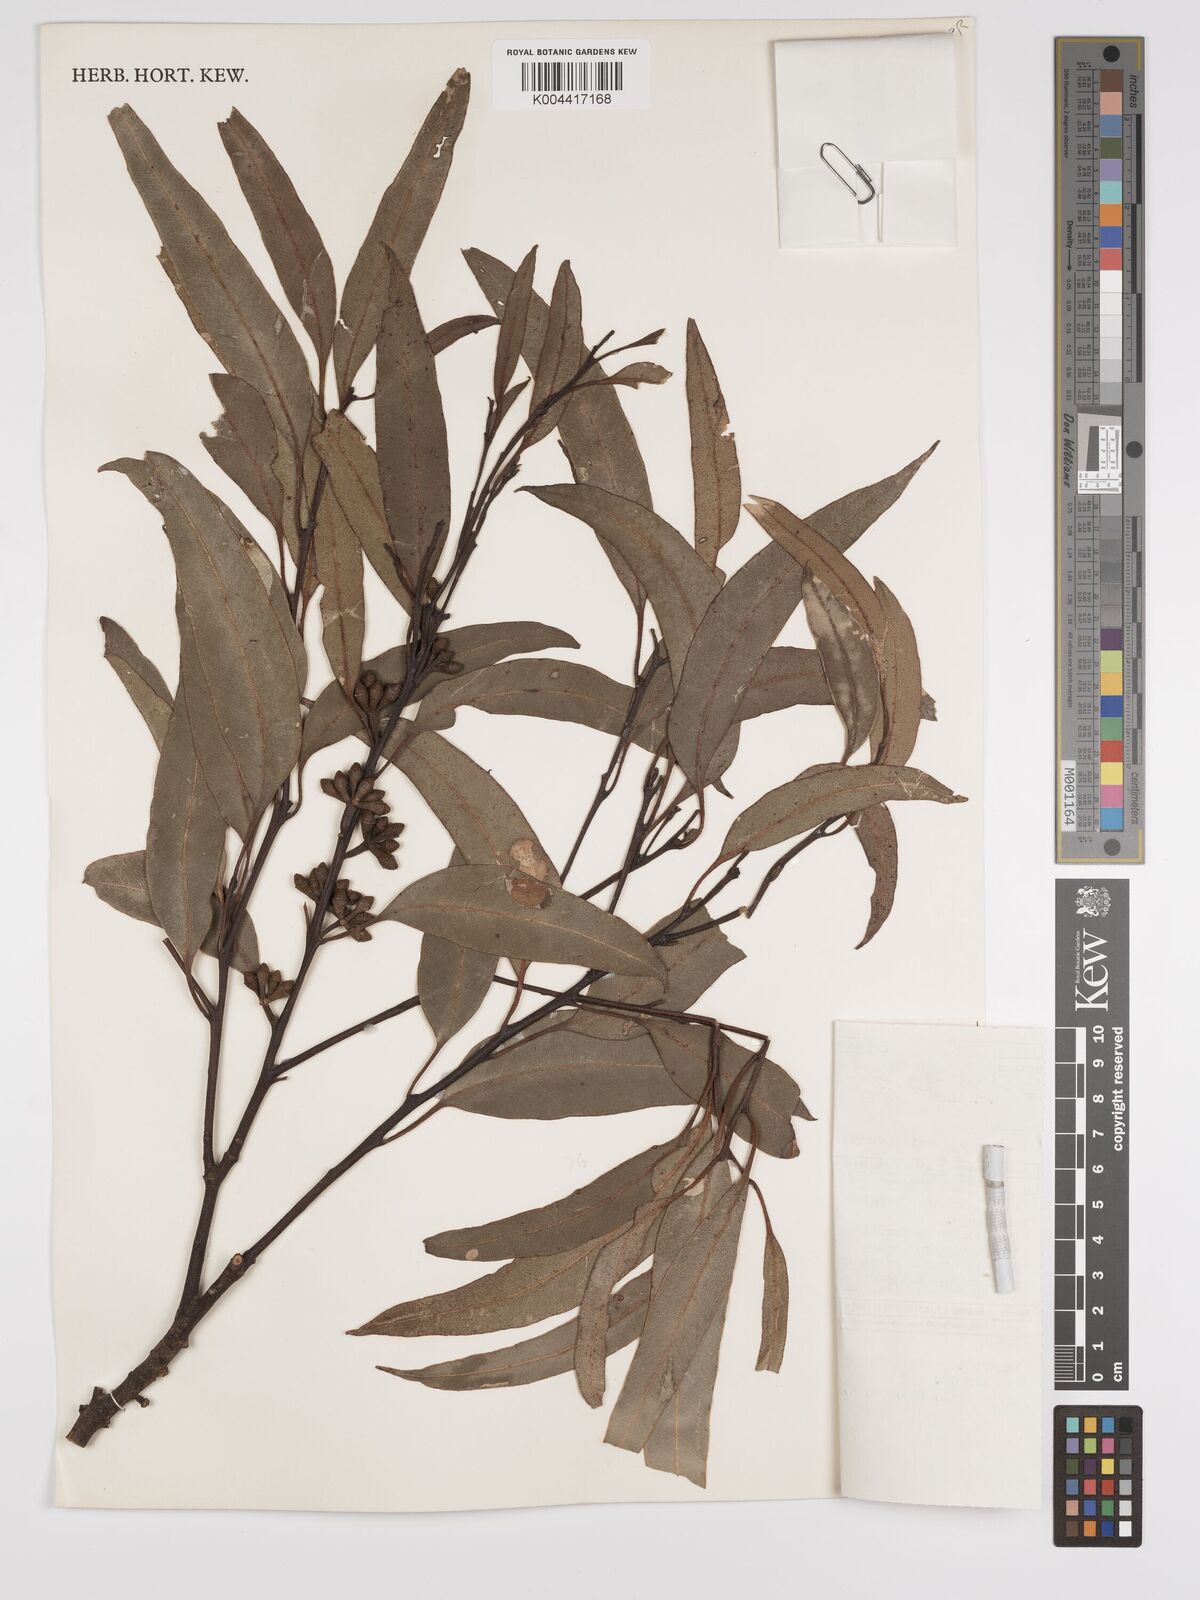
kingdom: Plantae
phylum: Tracheophyta
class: Magnoliopsida
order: Myrtales
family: Myrtaceae
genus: Eucalyptus
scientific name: Eucalyptus major
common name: Queensland grey gum
